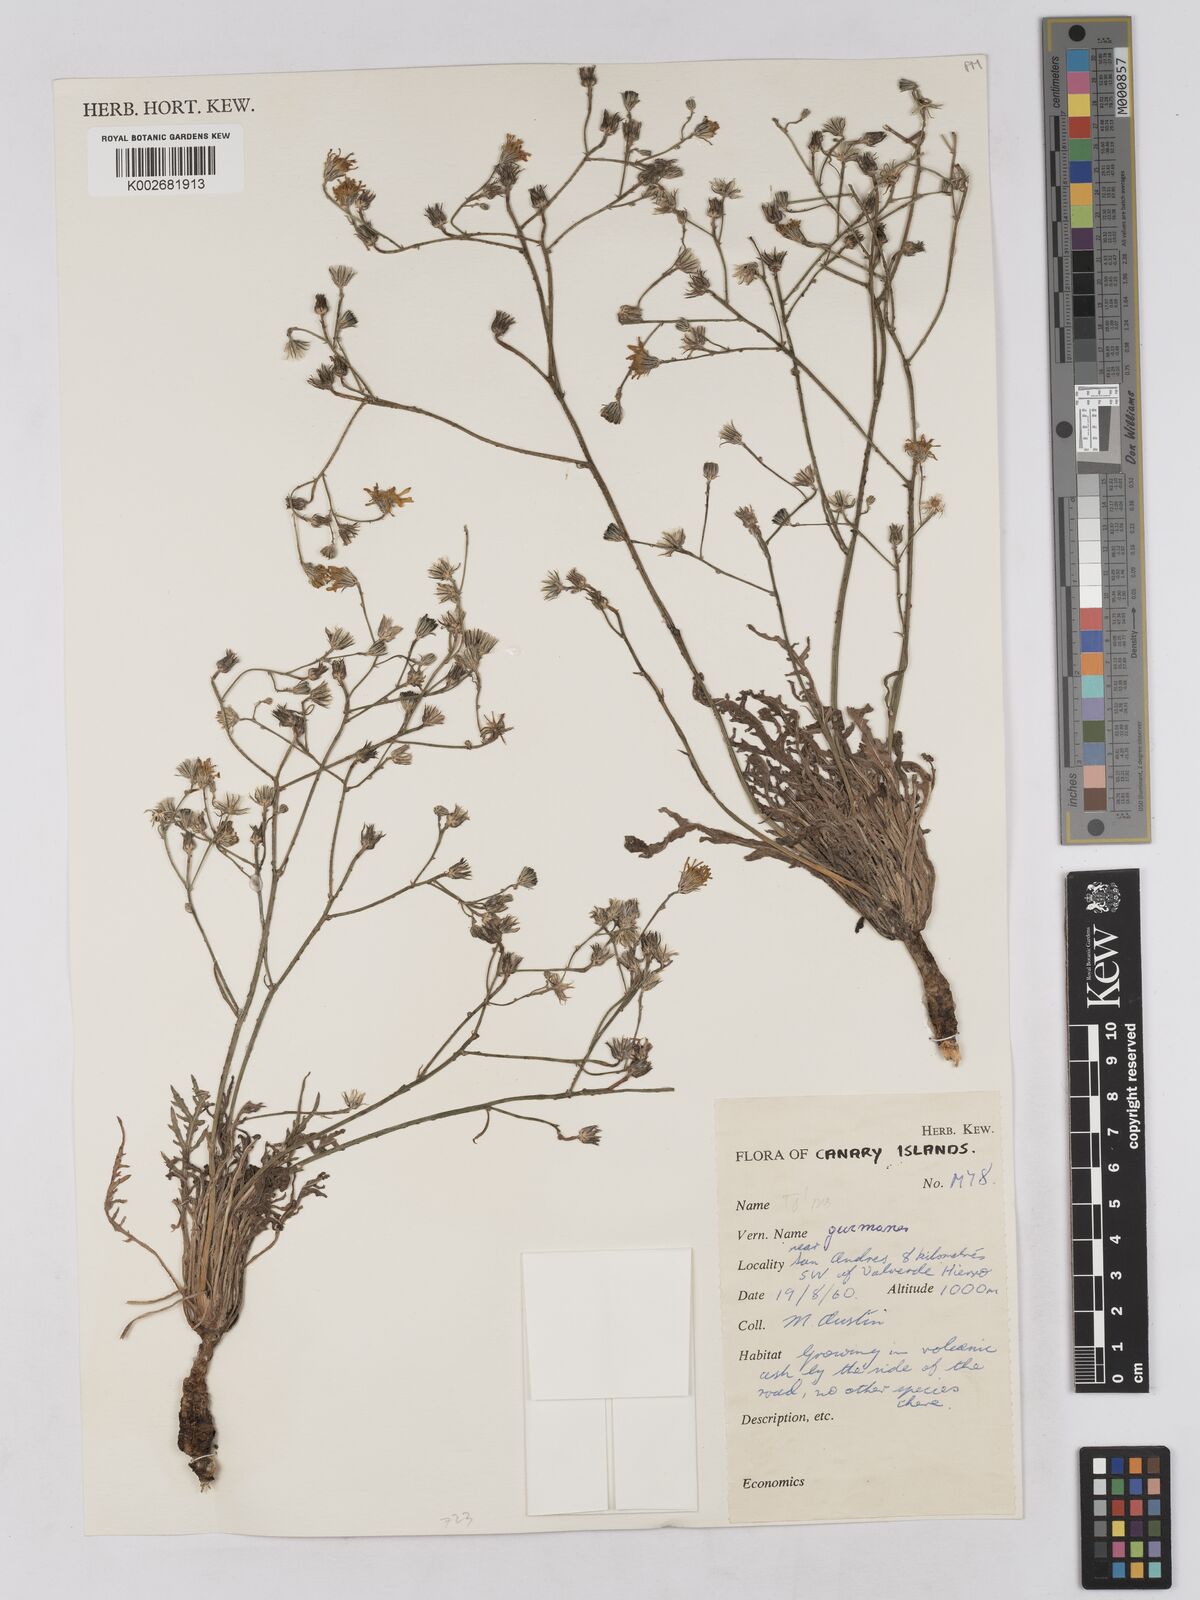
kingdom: Plantae
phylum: Tracheophyta
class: Magnoliopsida
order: Asterales
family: Asteraceae
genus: Tolpis
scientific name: Tolpis laciniata
